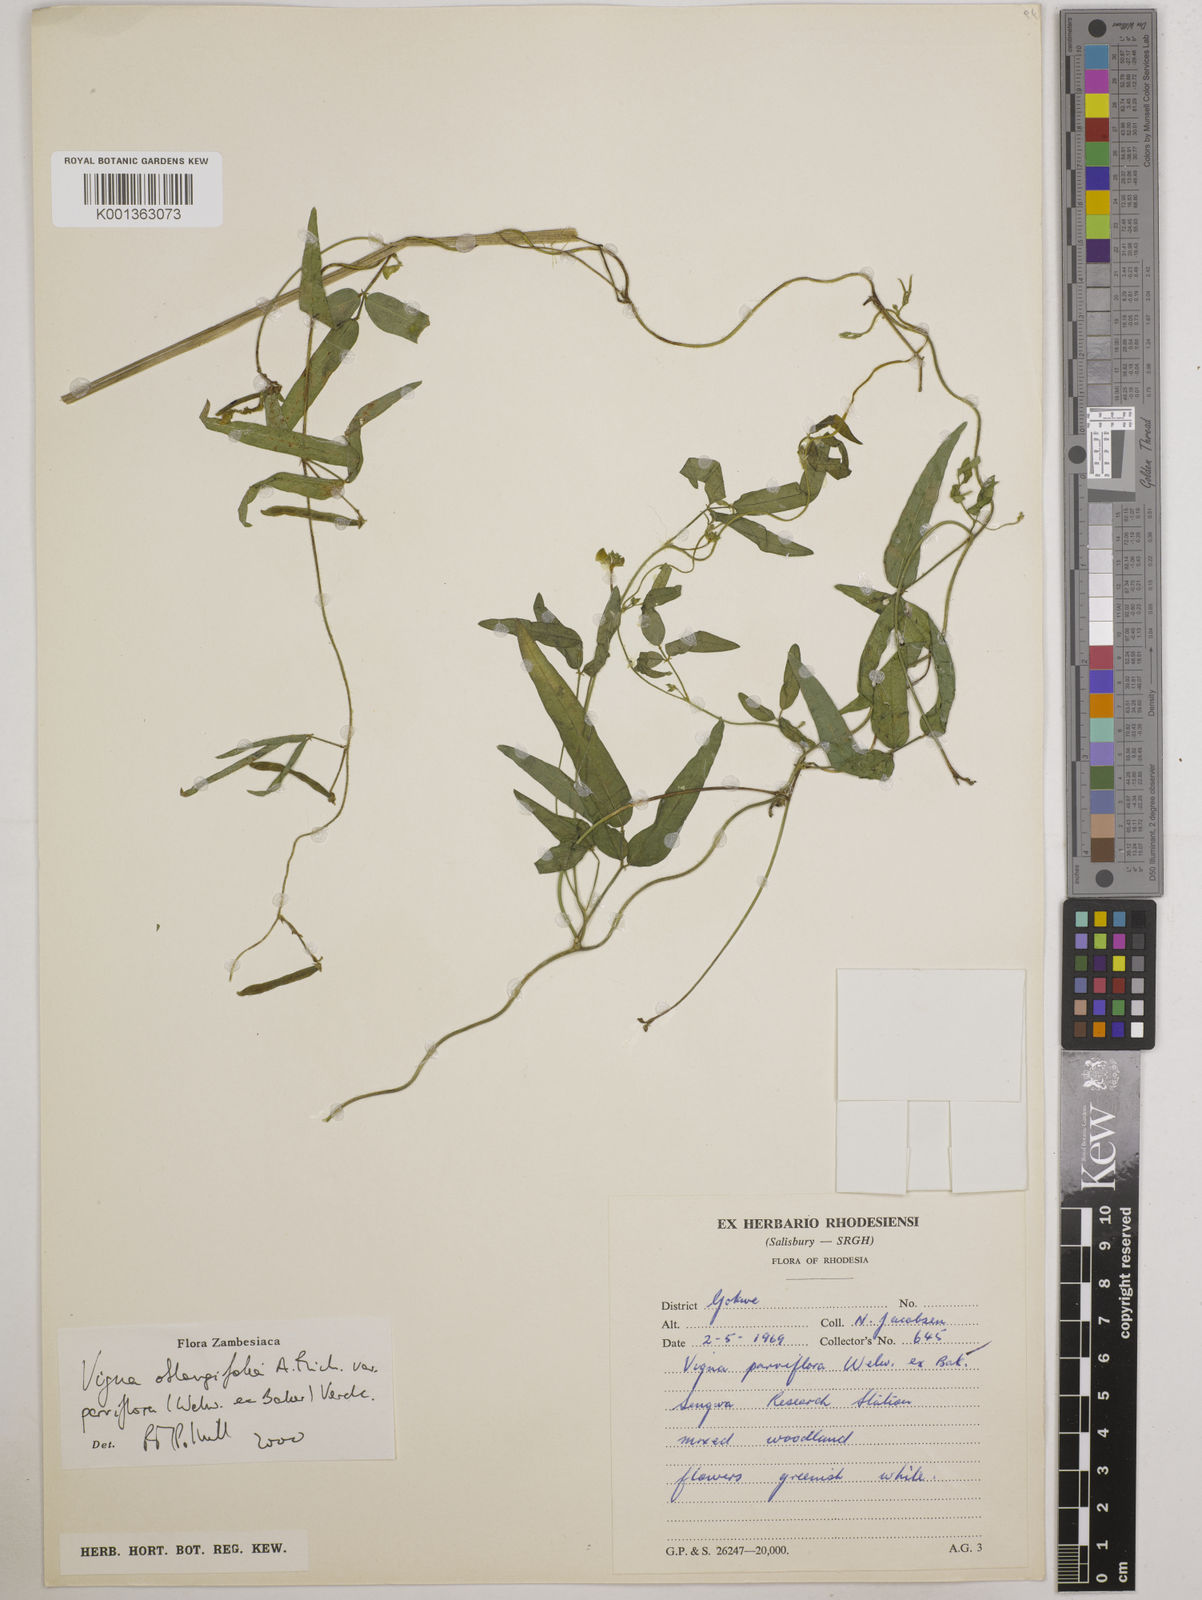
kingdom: Plantae
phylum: Tracheophyta
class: Magnoliopsida
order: Fabales
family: Fabaceae
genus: Vigna
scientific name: Vigna
